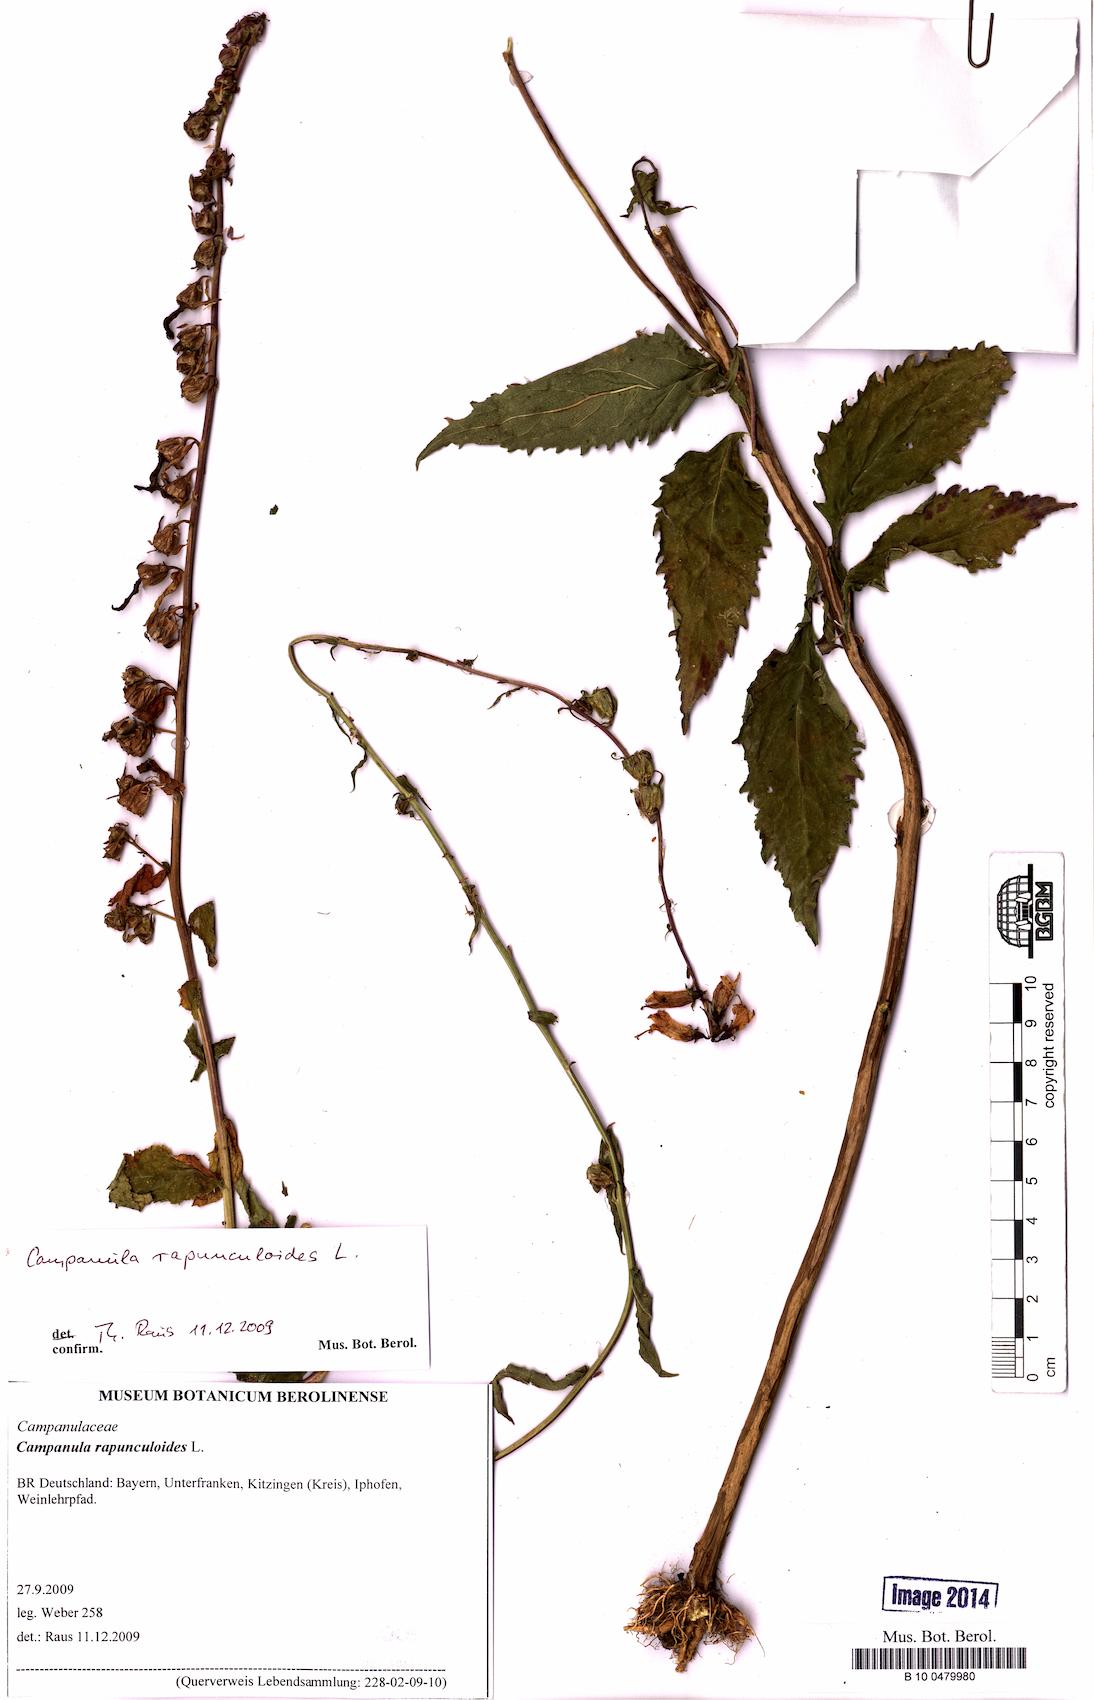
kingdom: Plantae
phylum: Tracheophyta
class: Magnoliopsida
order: Asterales
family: Campanulaceae
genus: Campanula
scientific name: Campanula rapunculoides
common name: Creeping bellflower
